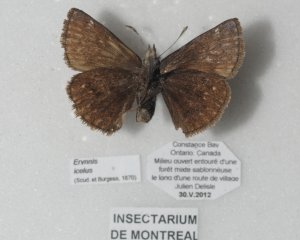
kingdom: Animalia
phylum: Arthropoda
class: Insecta
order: Lepidoptera
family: Hesperiidae
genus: Erynnis
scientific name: Erynnis icelus
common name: Dreamy Duskywing
